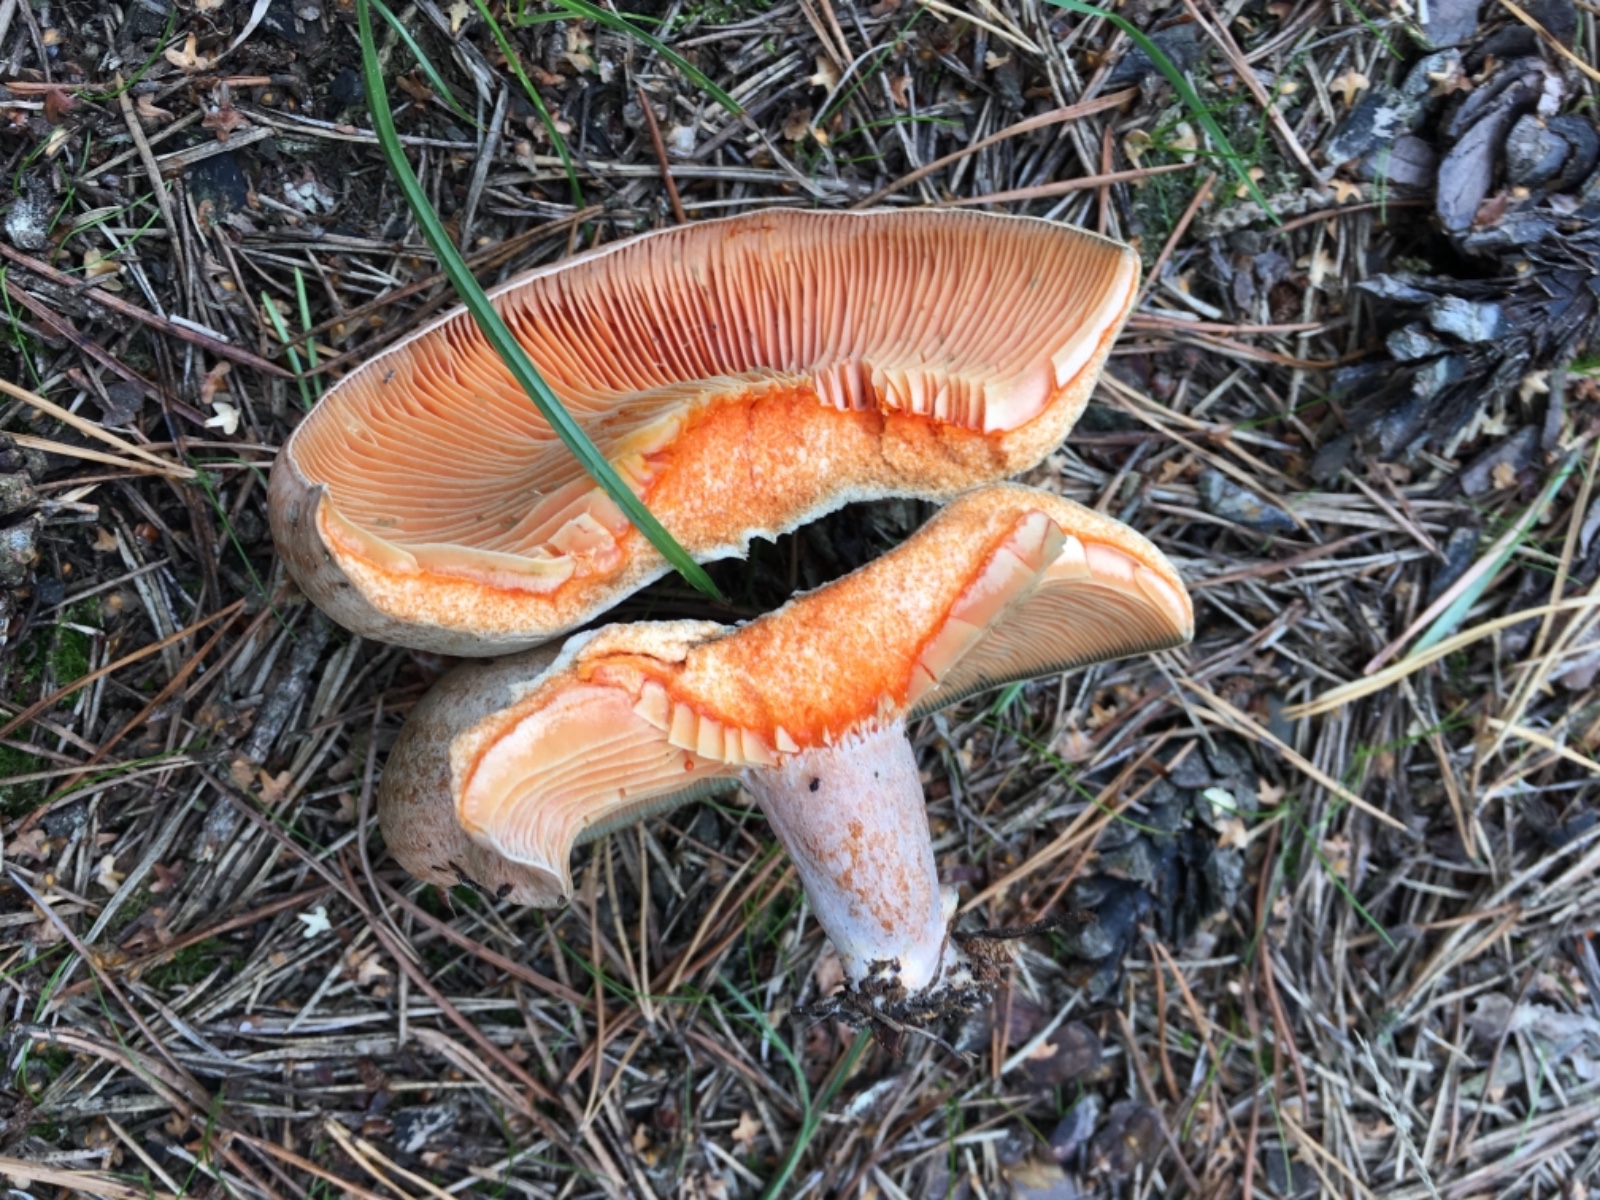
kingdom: Fungi
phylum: Basidiomycota
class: Agaricomycetes
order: Russulales
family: Russulaceae
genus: Lactarius
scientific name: Lactarius quieticolor
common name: tvefarvet mælkehat
